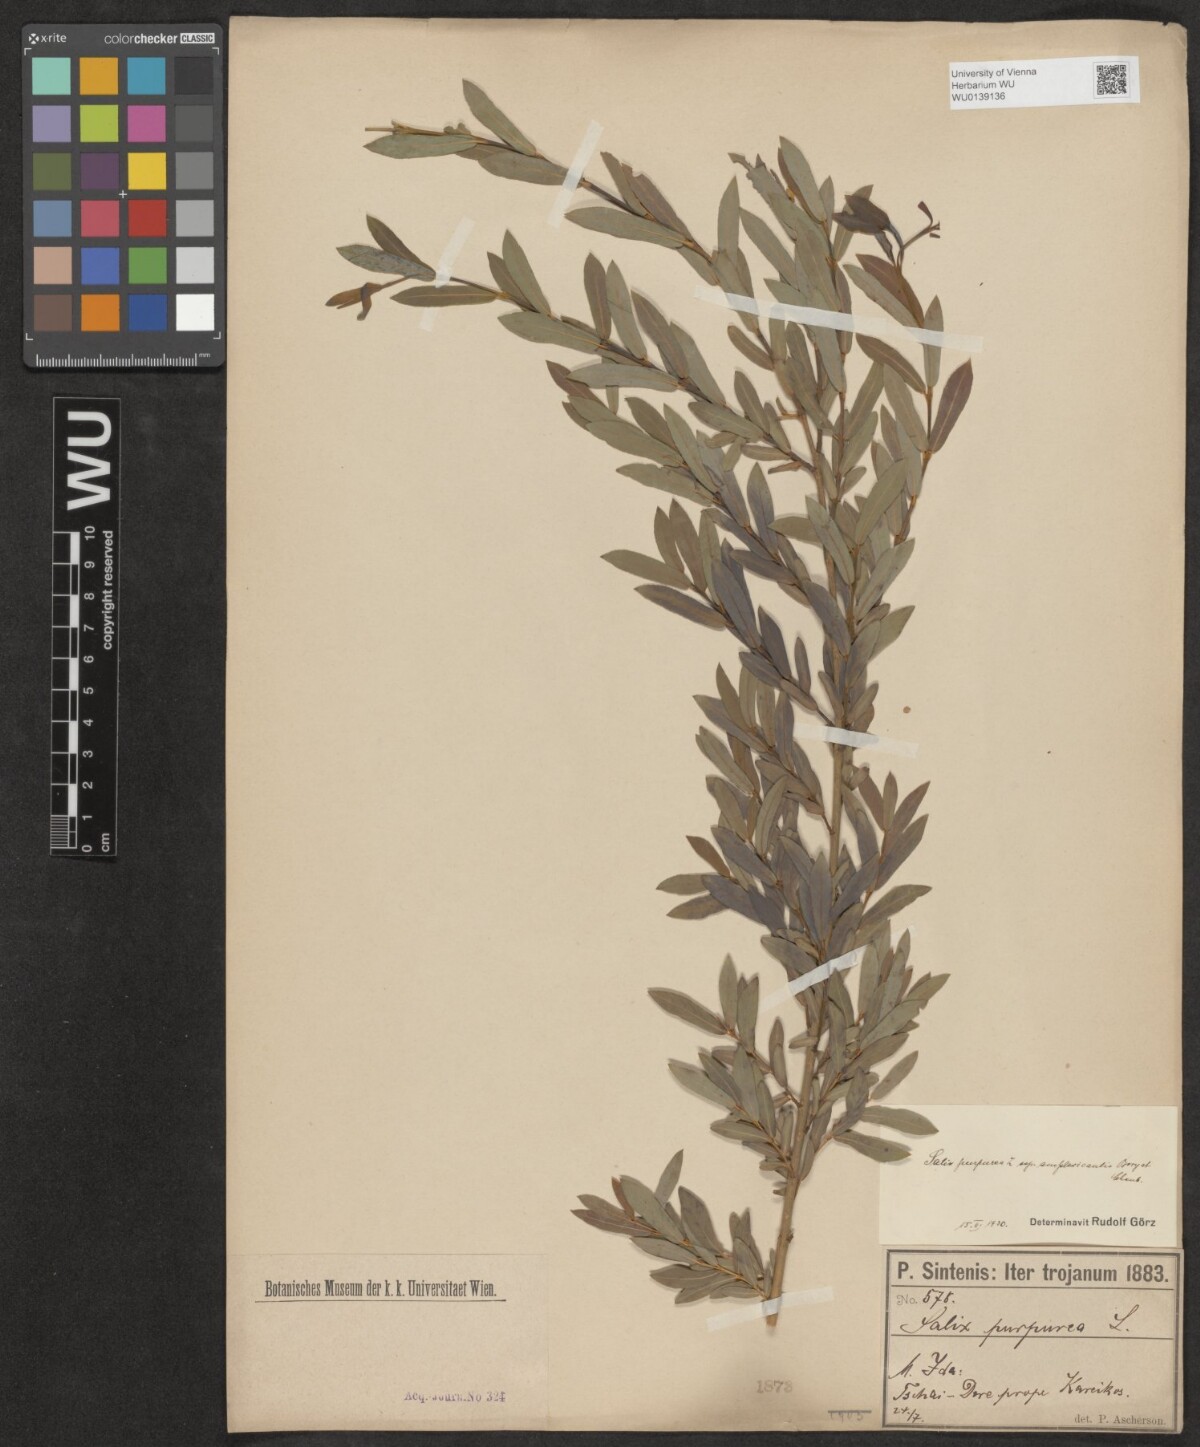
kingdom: Plantae
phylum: Tracheophyta
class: Magnoliopsida
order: Malpighiales
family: Salicaceae
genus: Salix
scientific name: Salix amplexicaulis
